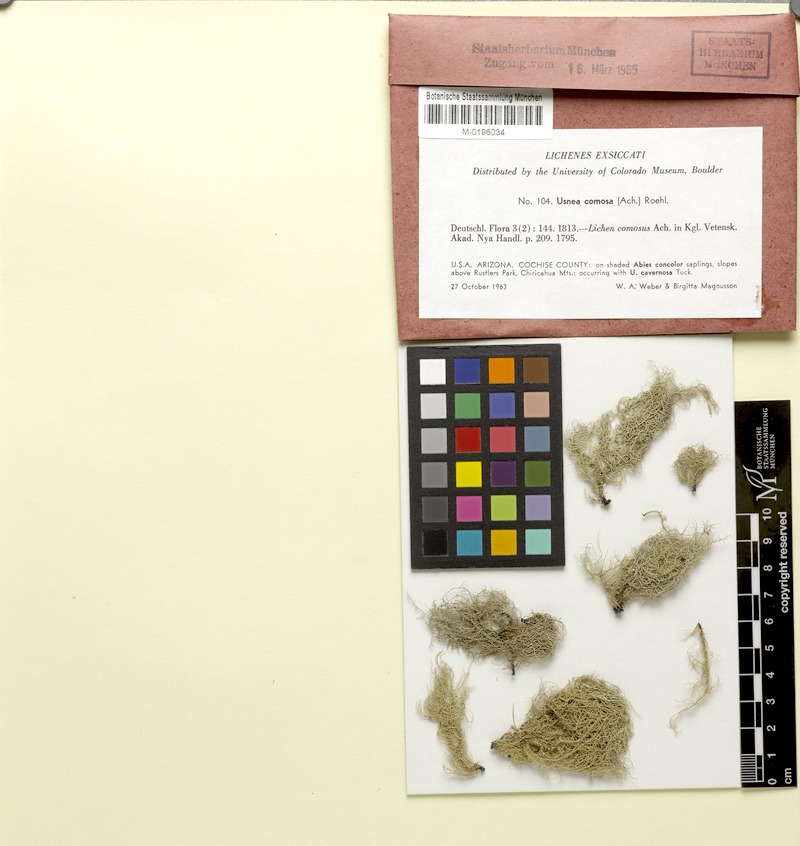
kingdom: Fungi
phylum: Ascomycota
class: Lecanoromycetes
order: Lecanorales
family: Parmeliaceae
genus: Usnea
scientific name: Usnea cavernosa
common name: Pitted beard lichen
